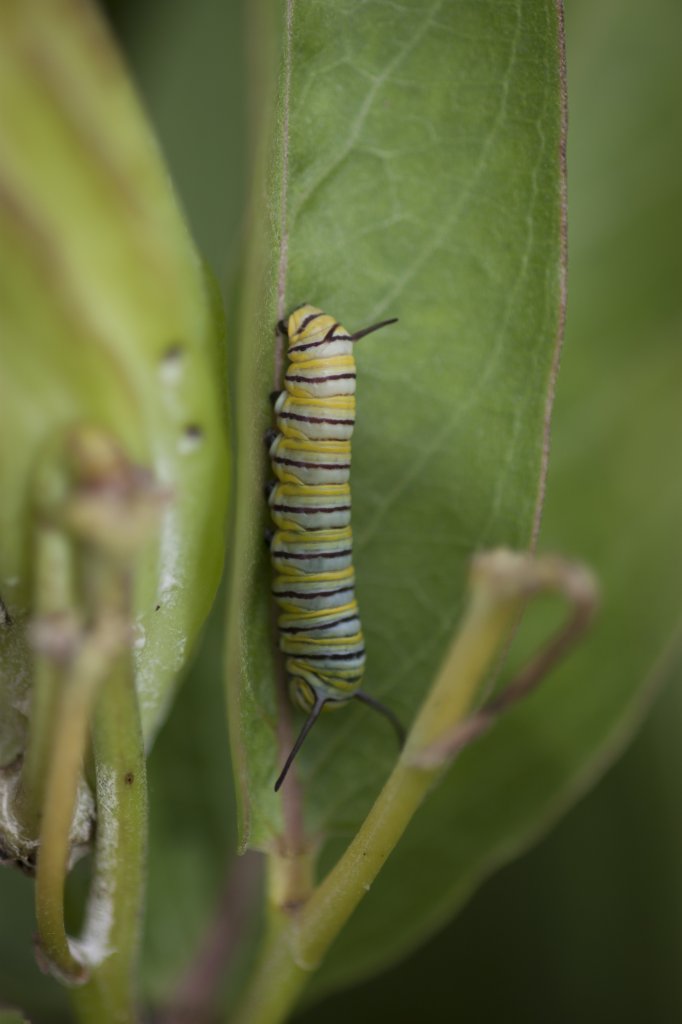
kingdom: Animalia
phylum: Arthropoda
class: Insecta
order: Lepidoptera
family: Nymphalidae
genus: Danaus
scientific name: Danaus plexippus
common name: Monarch
